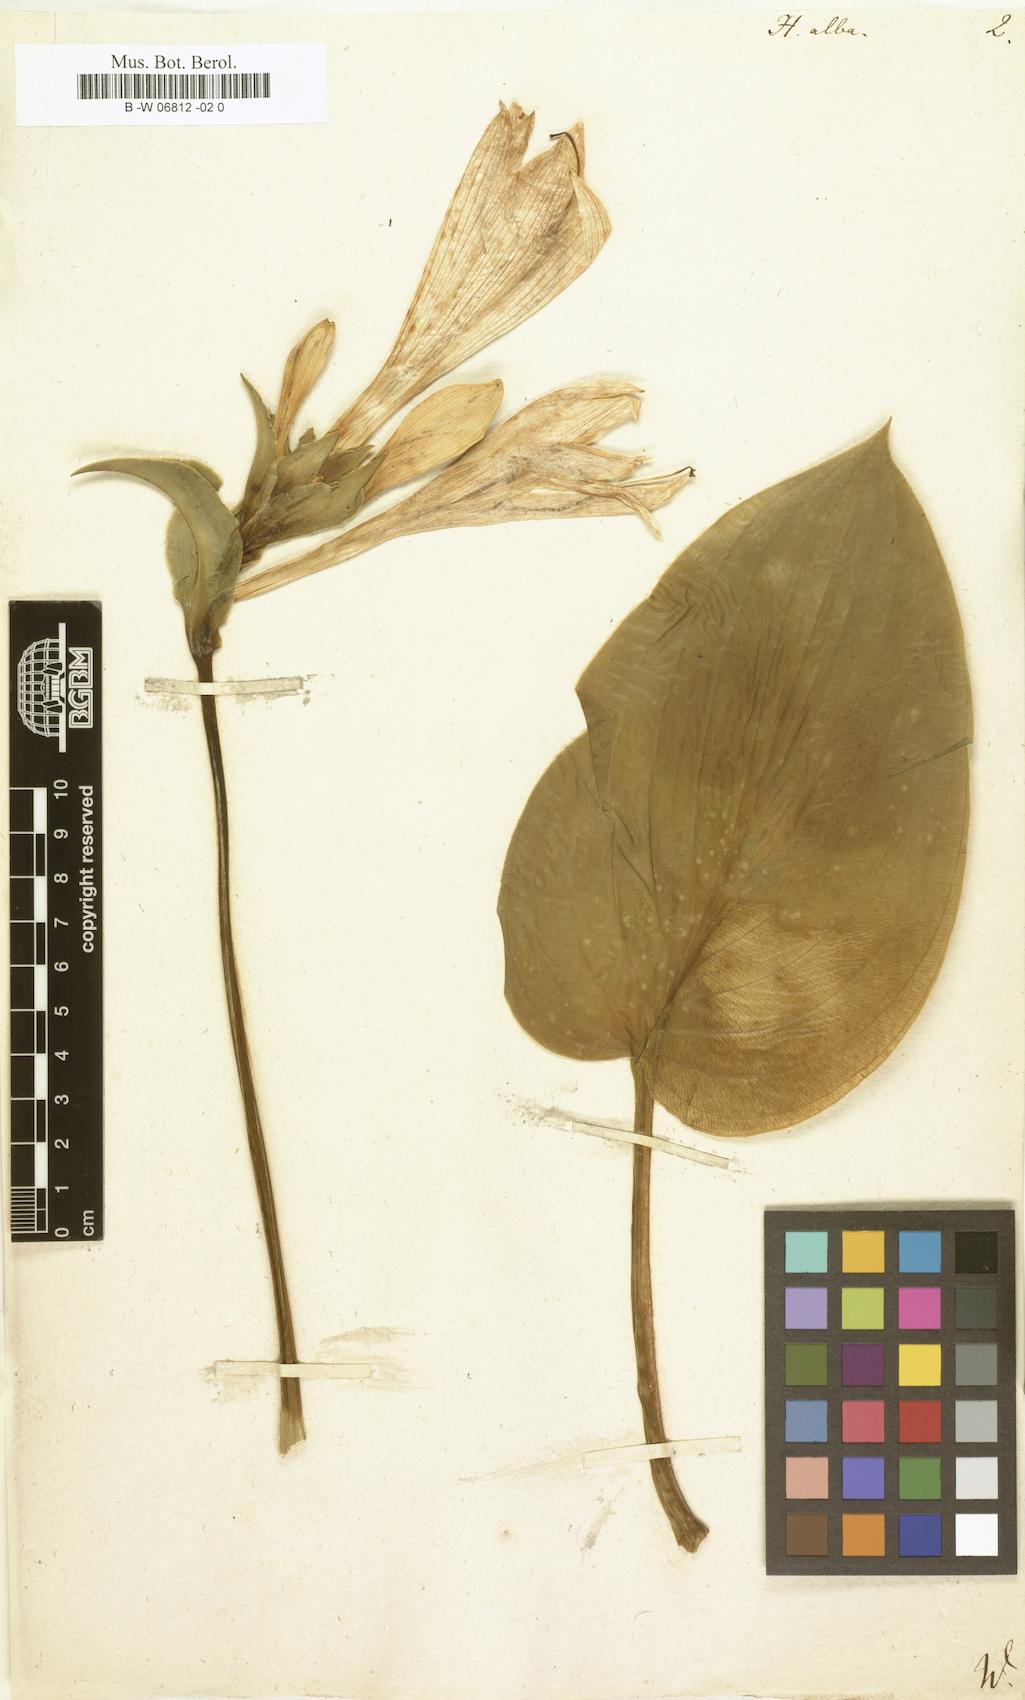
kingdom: Plantae
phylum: Tracheophyta
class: Liliopsida
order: Asparagales
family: Asparagaceae
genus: Hosta
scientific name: Hosta plantaginea
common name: August-lily
